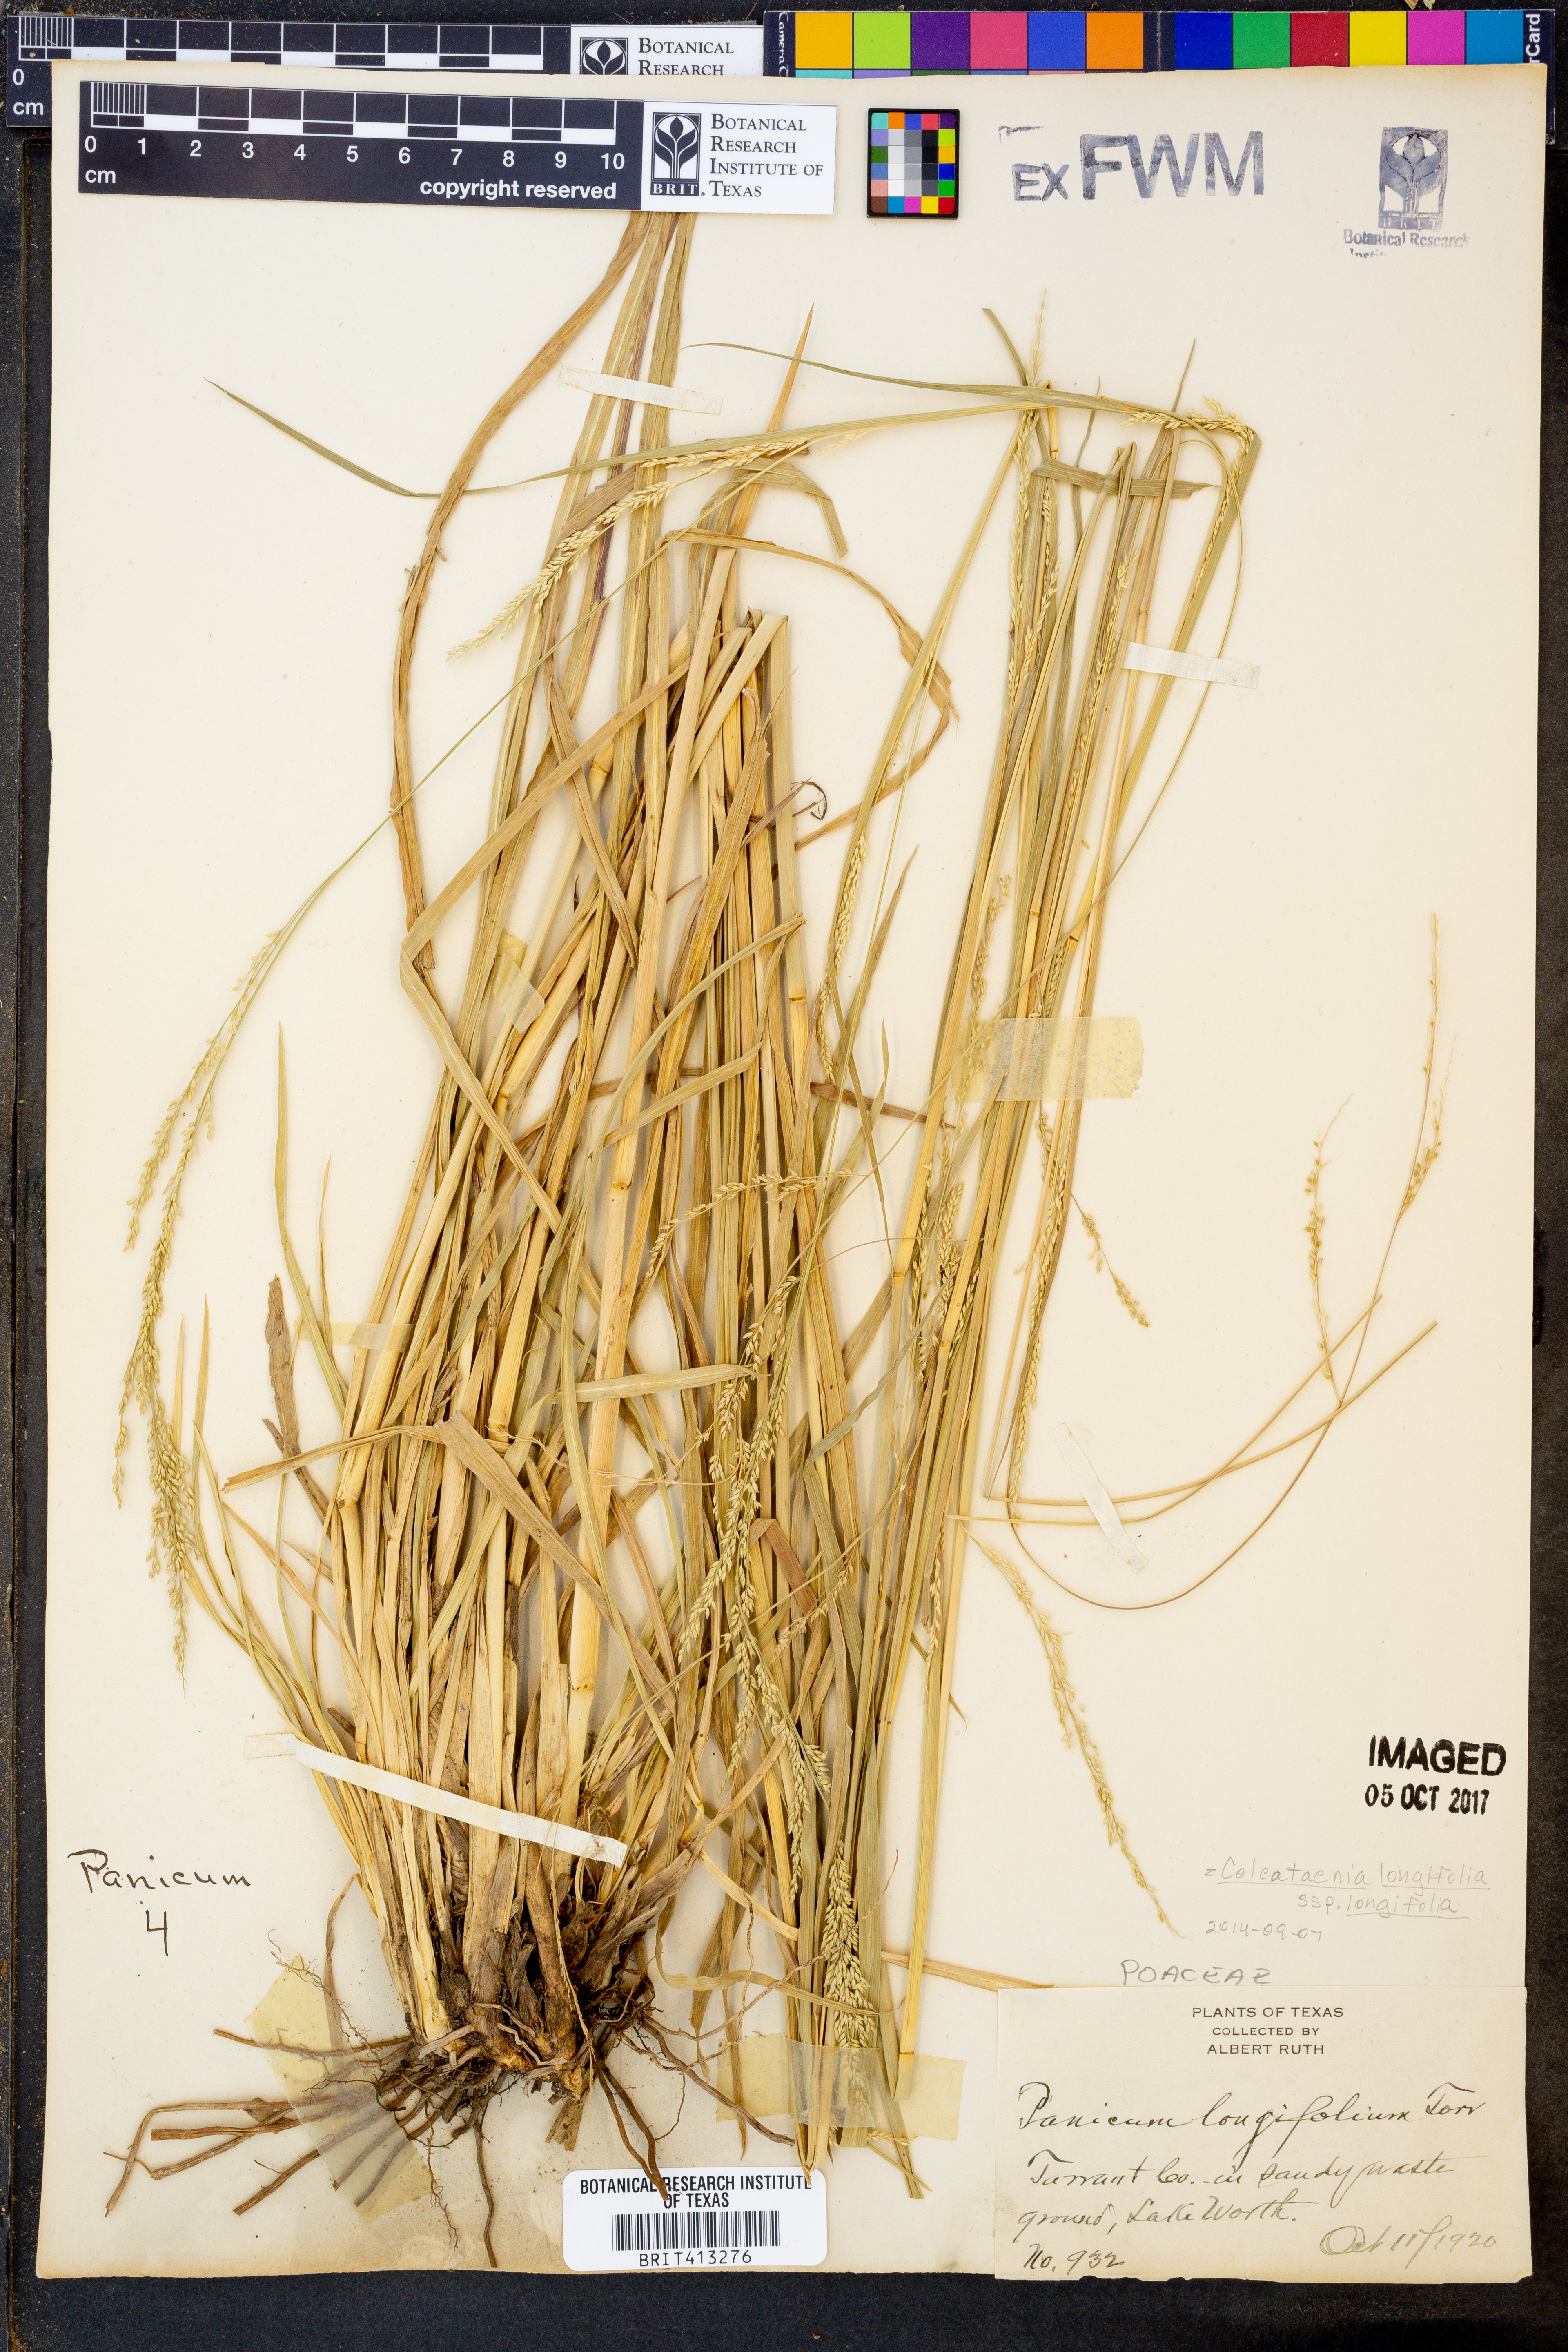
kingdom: Plantae
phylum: Tracheophyta
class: Liliopsida
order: Poales
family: Poaceae
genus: Coleataenia
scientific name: Coleataenia longifolia
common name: Long-leaved panicgrass
